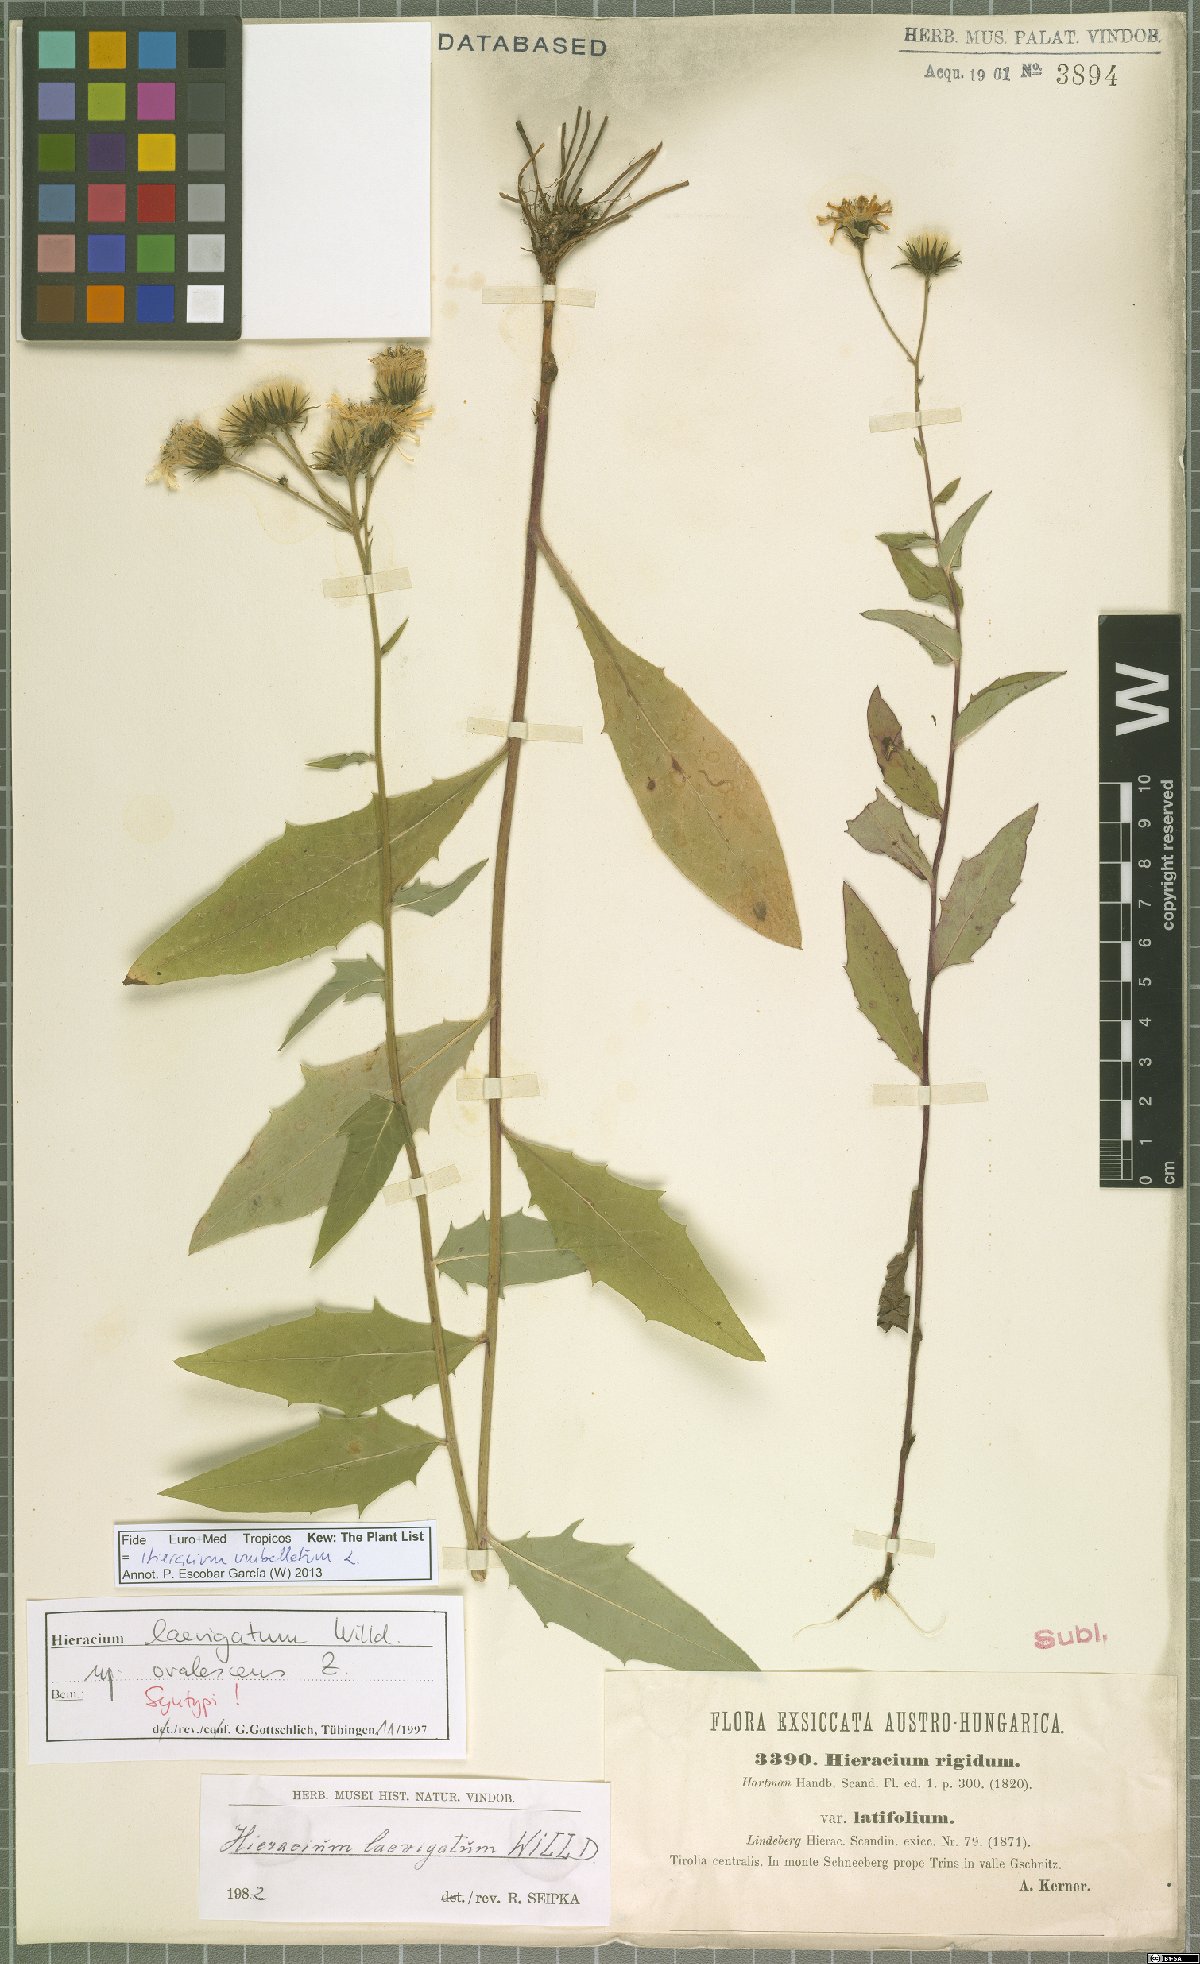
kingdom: Plantae
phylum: Tracheophyta
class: Magnoliopsida
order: Asterales
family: Asteraceae
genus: Hieracium
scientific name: Hieracium umbellatum
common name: Northern hawkweed
